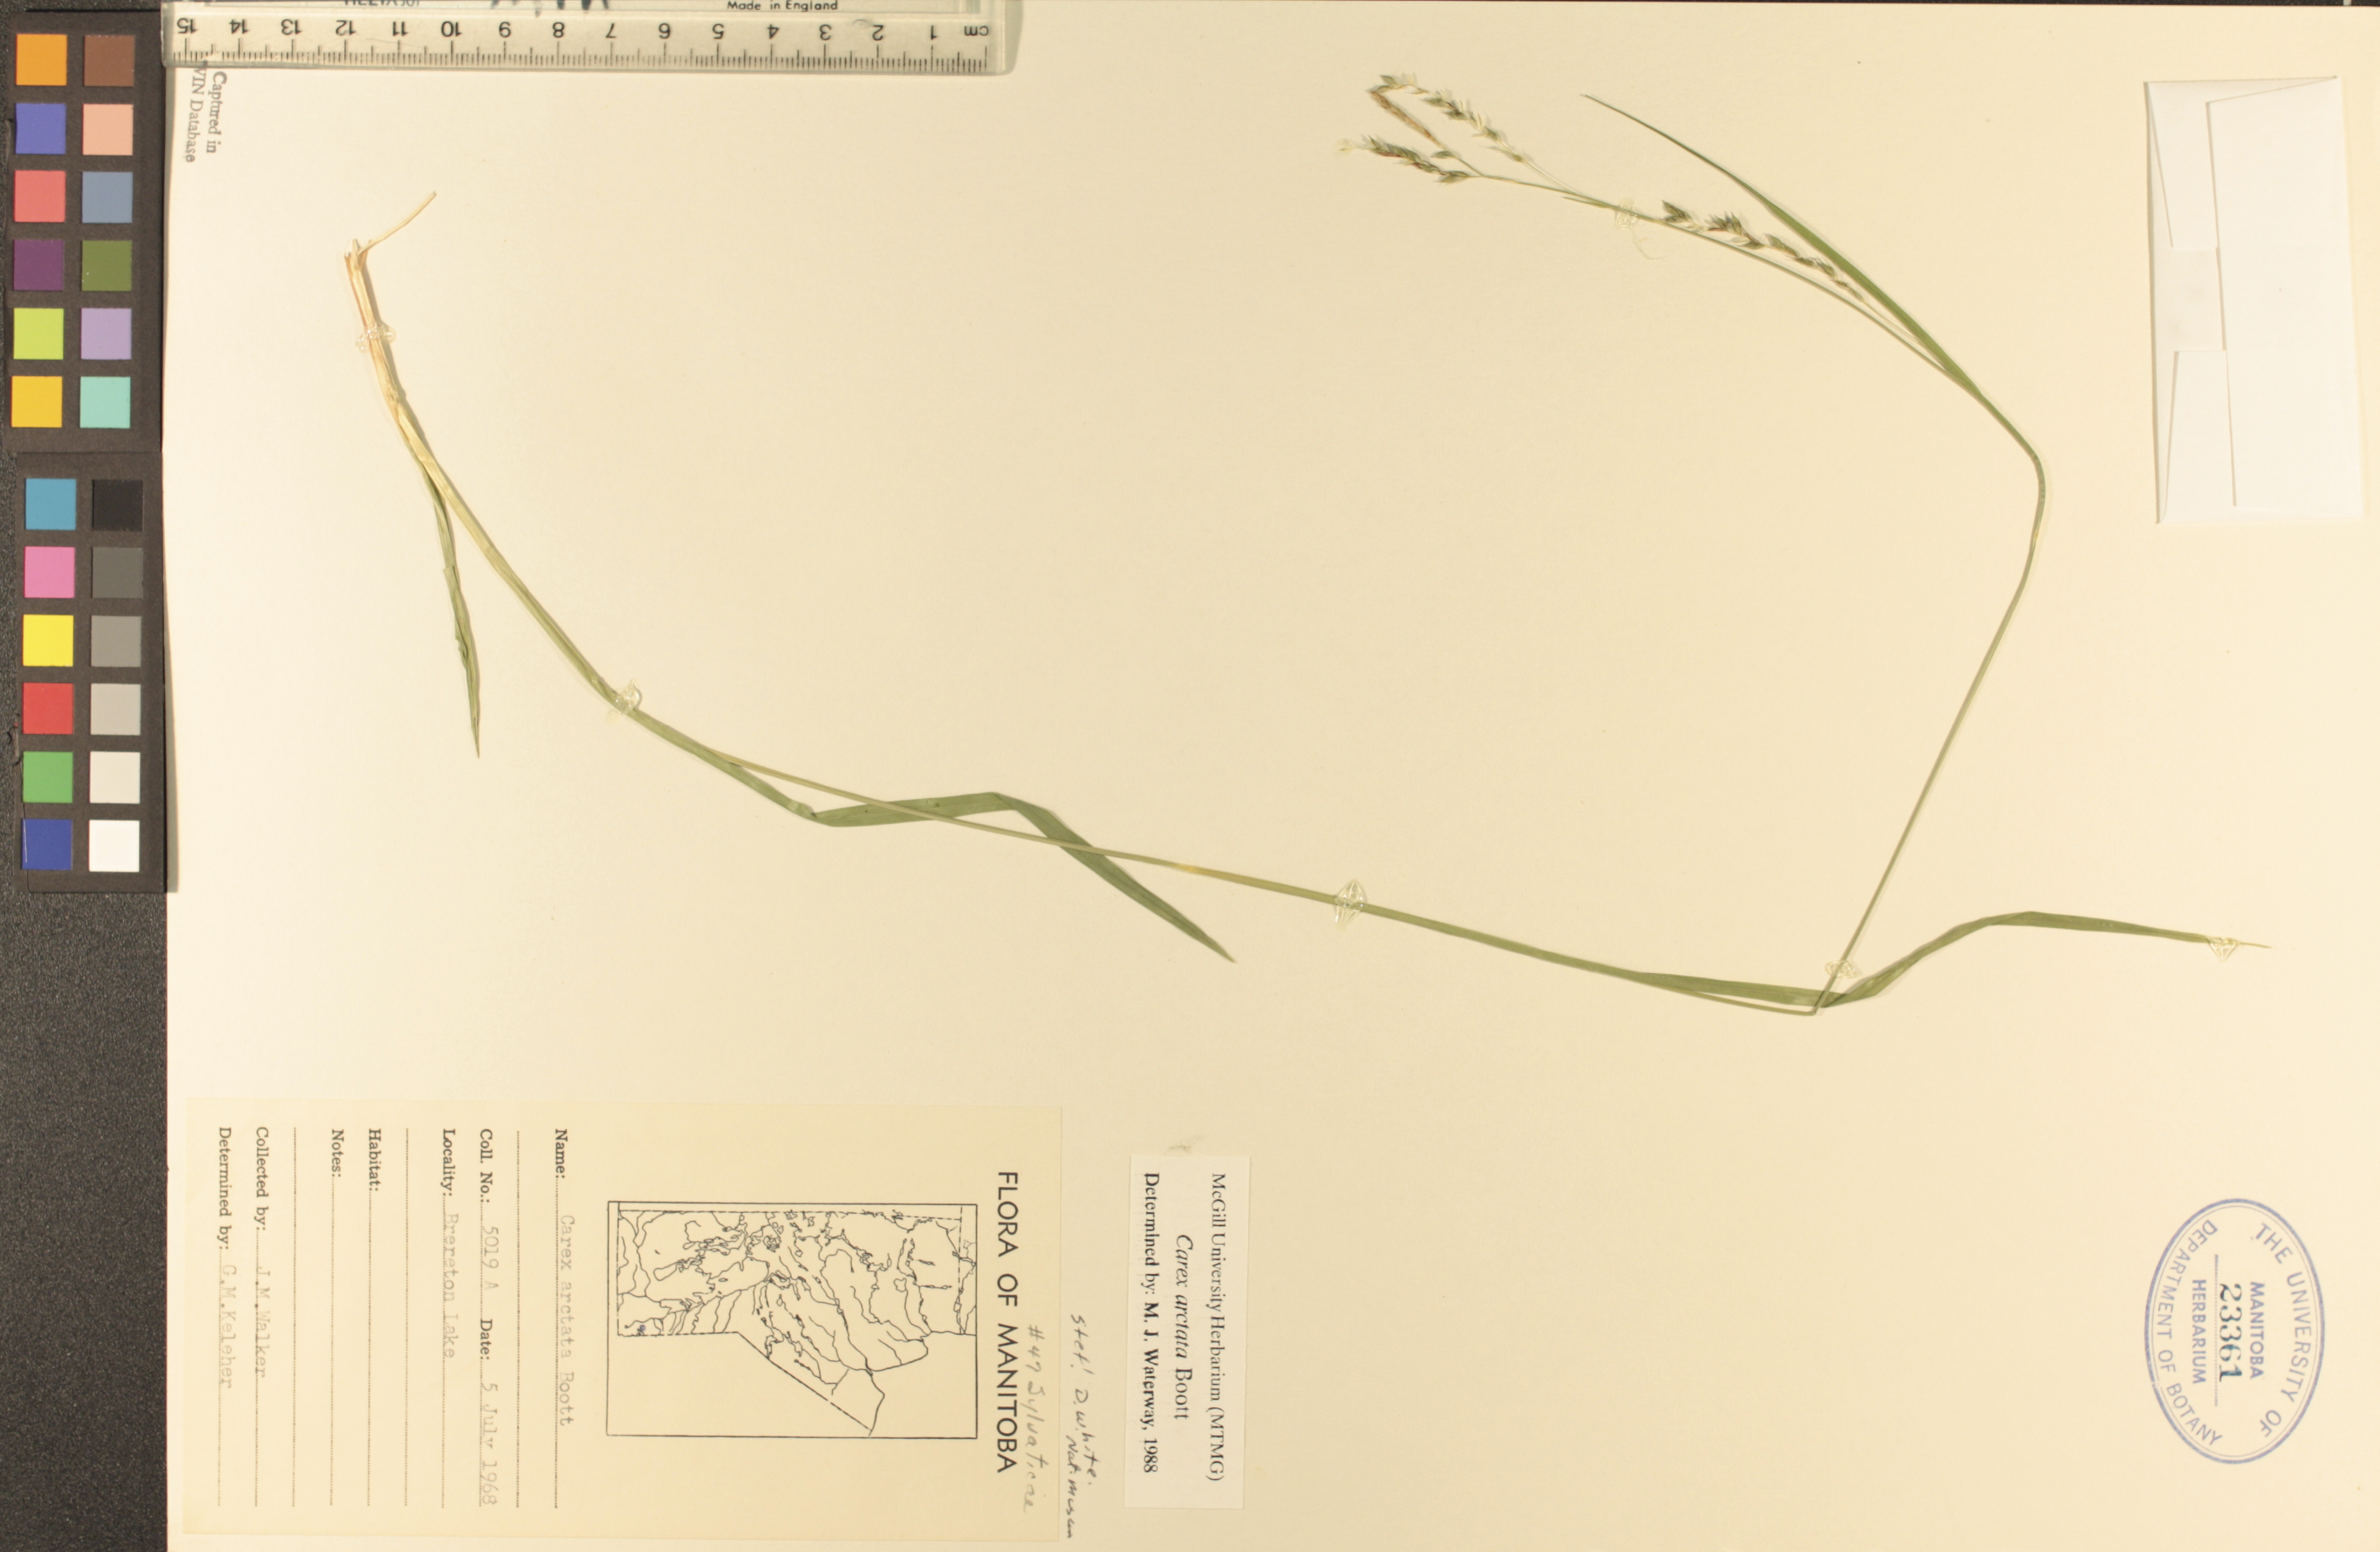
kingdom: Plantae
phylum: Tracheophyta
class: Liliopsida
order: Poales
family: Cyperaceae
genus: Carex
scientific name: Carex arctata
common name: Black sedge
